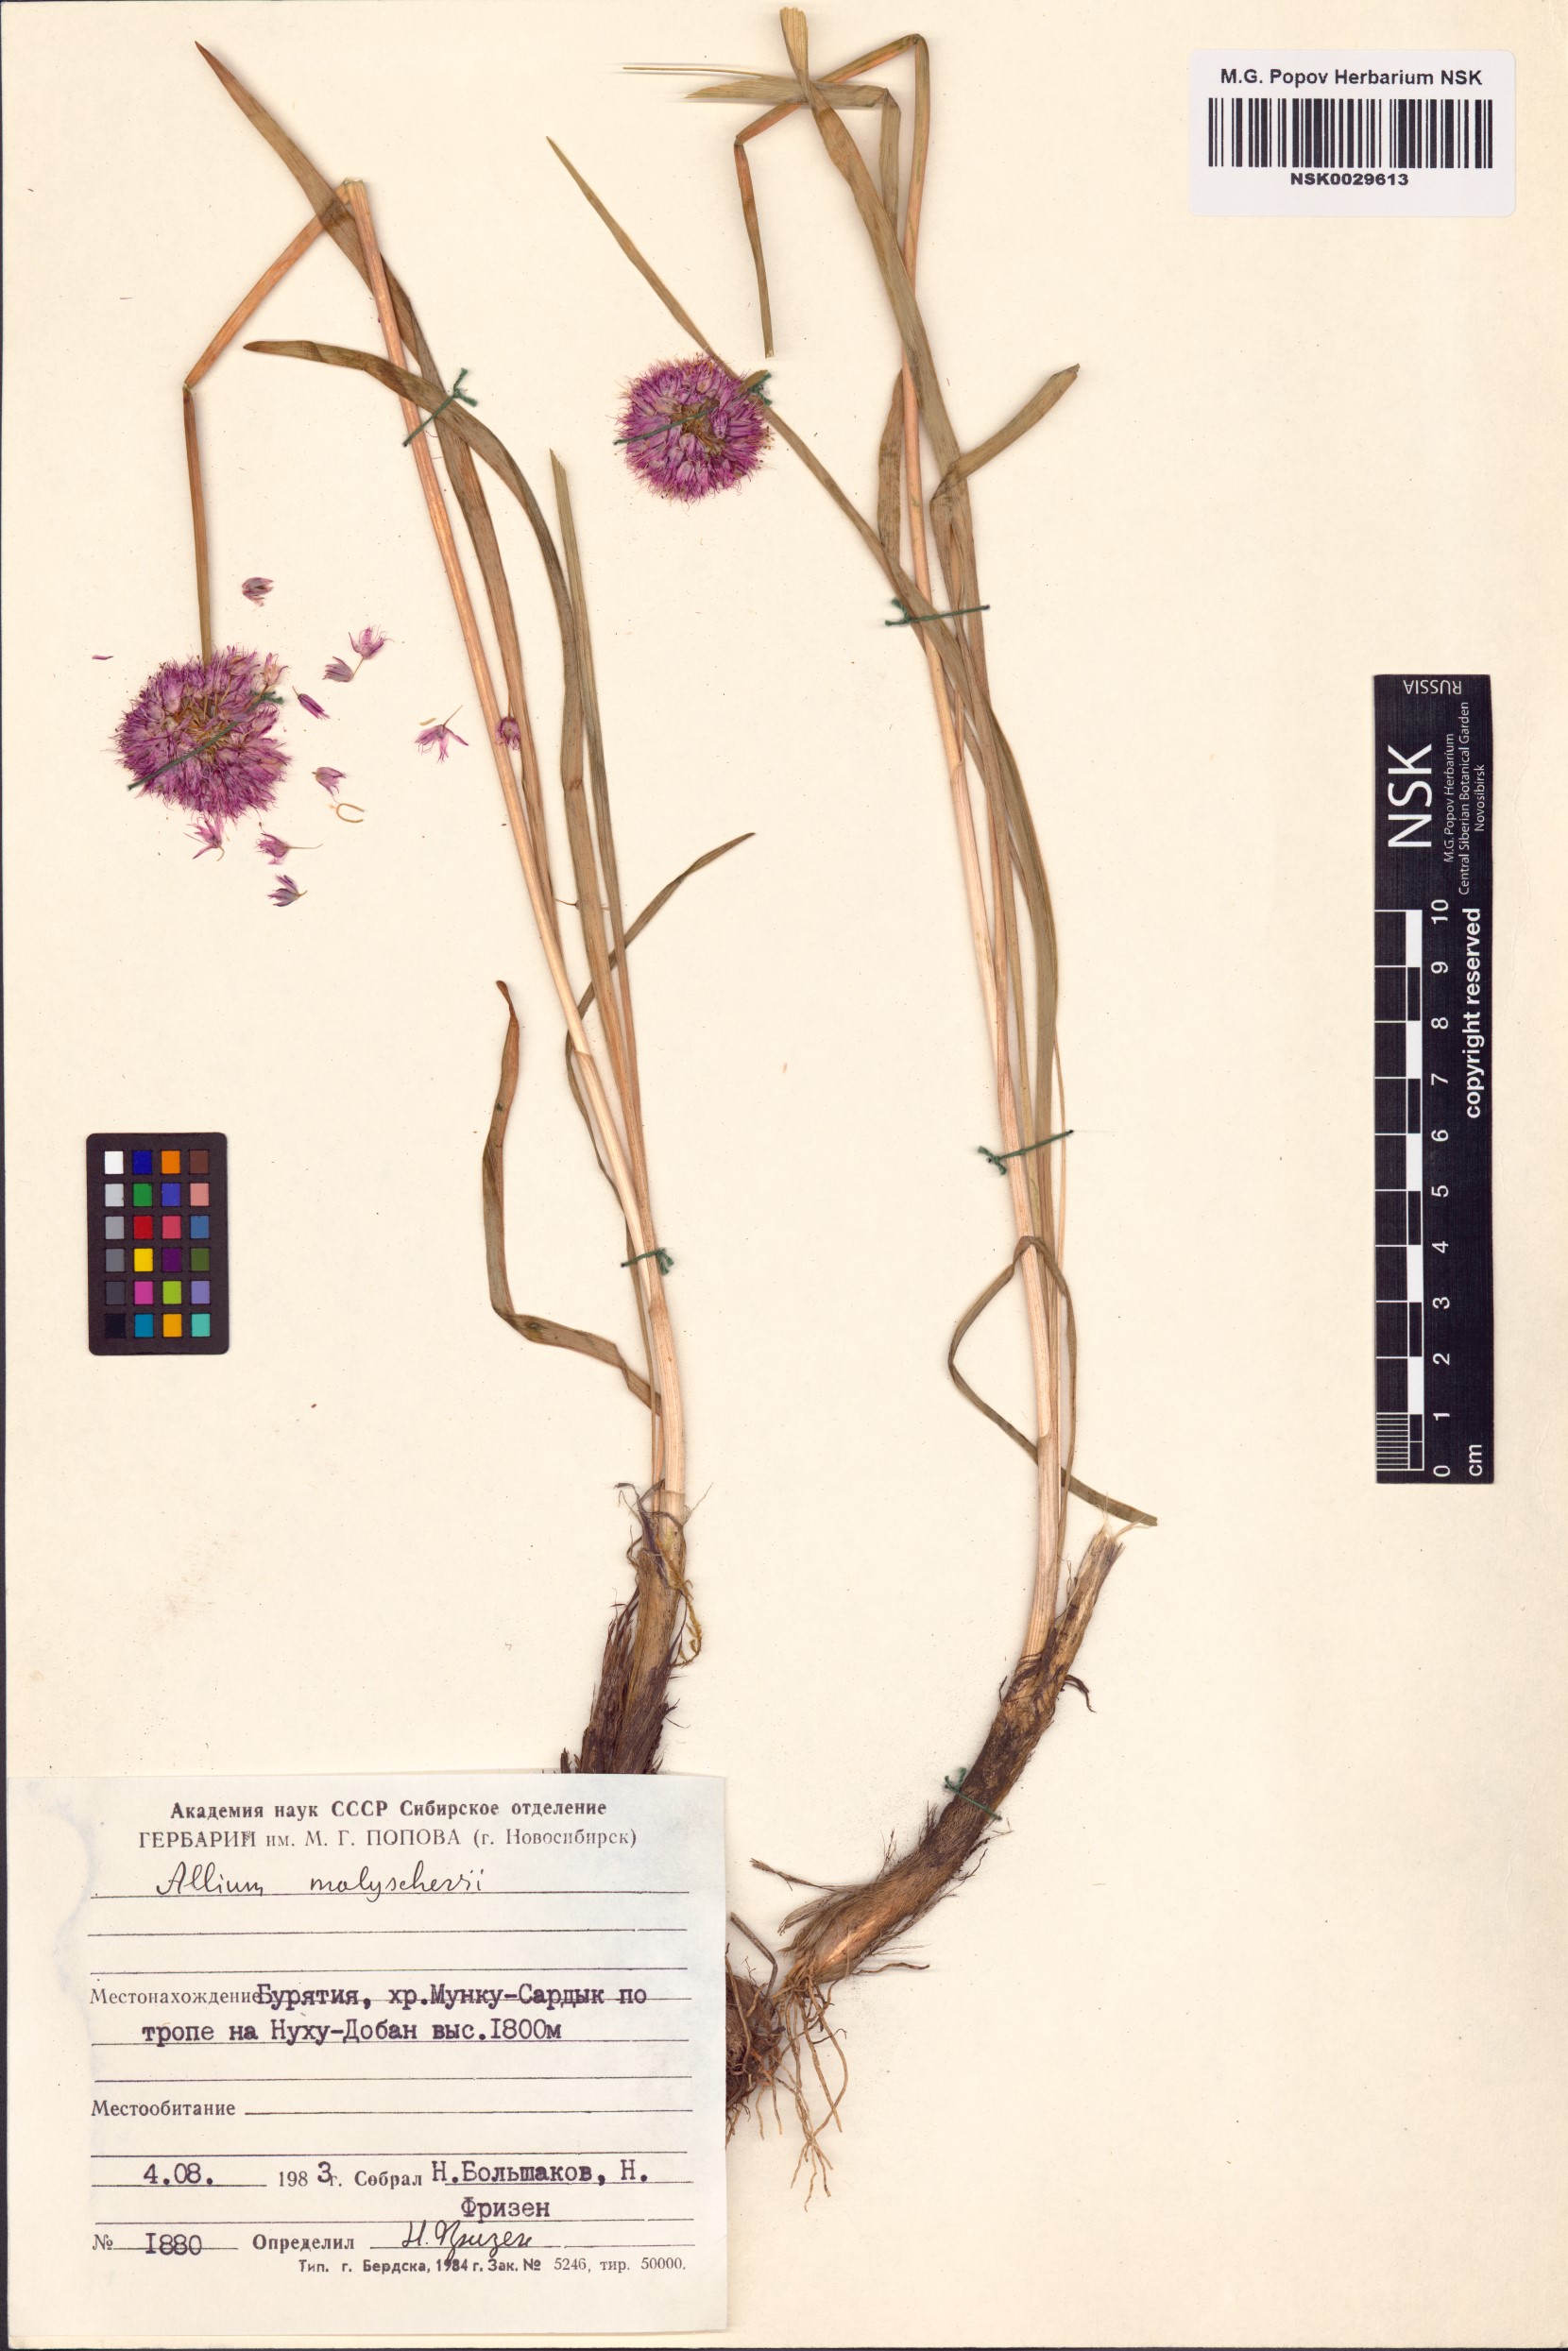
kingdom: Plantae
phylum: Tracheophyta
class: Liliopsida
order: Asparagales
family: Amaryllidaceae
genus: Allium
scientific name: Allium malyschevii
